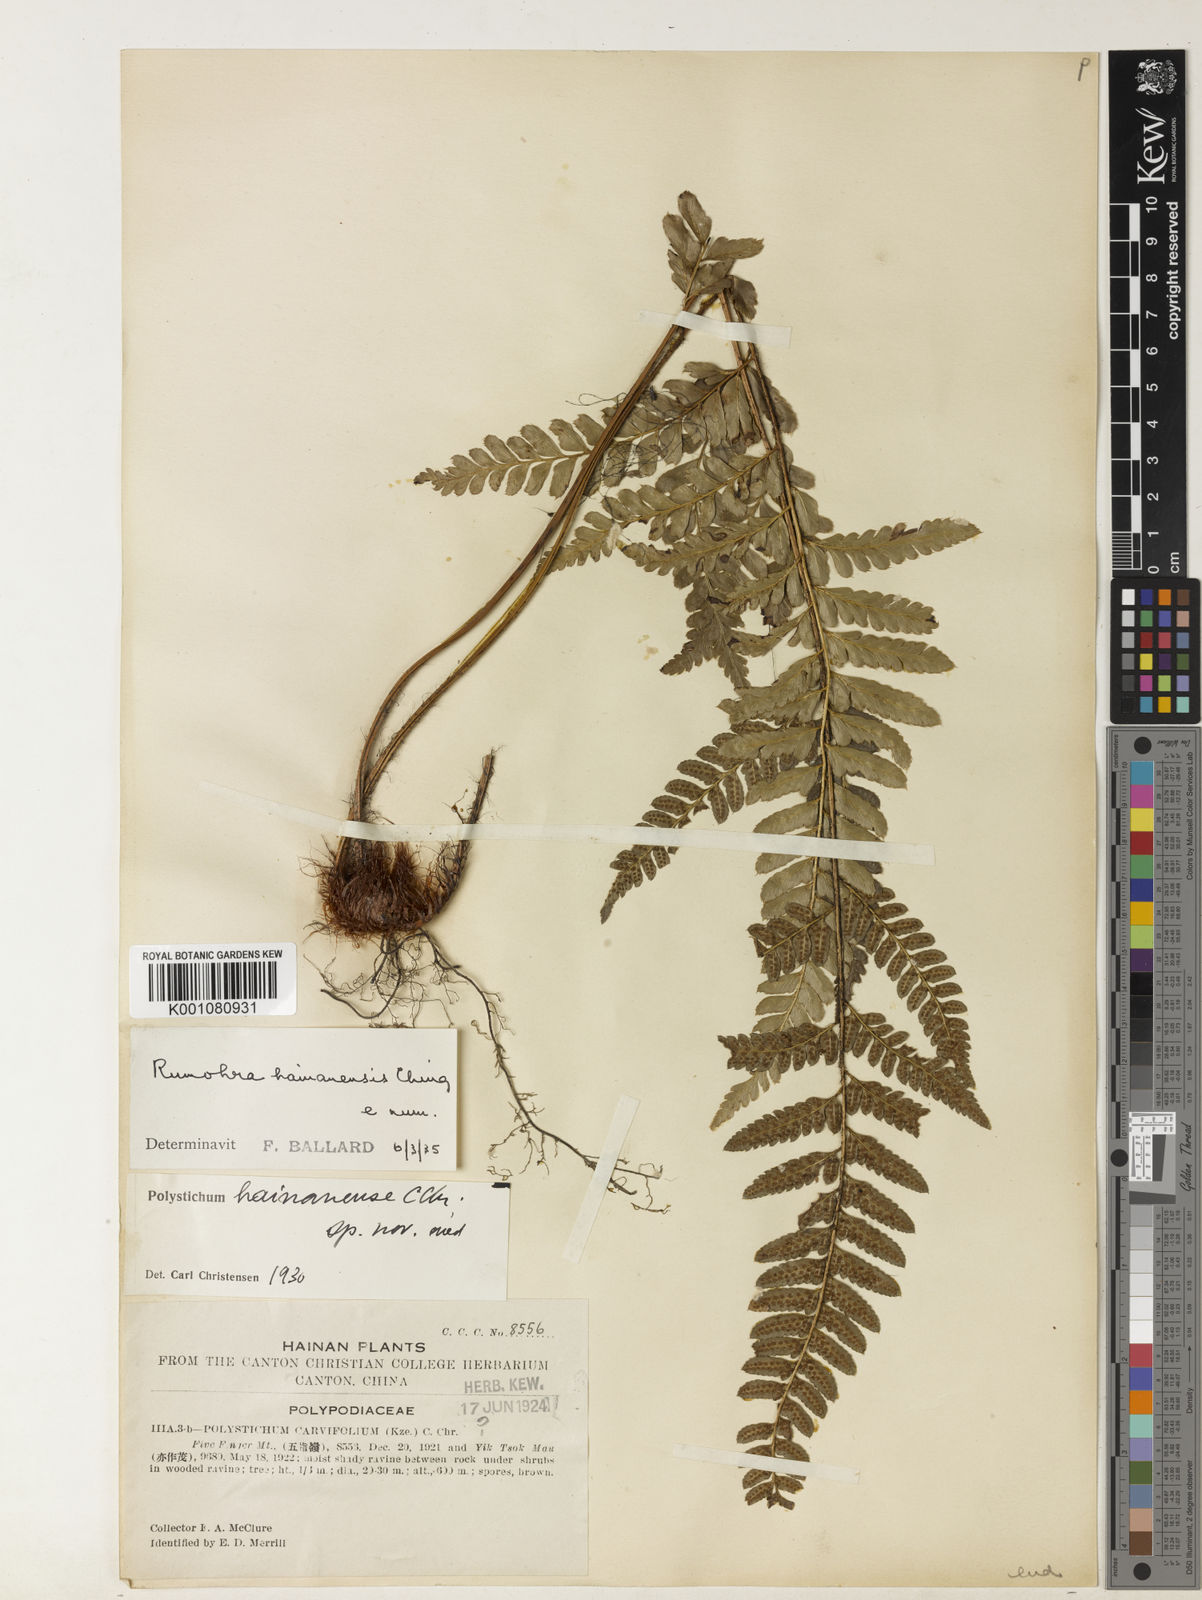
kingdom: Plantae
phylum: Tracheophyta
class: Polypodiopsida
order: Polypodiales
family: Dryopteridaceae
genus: Arachniodes
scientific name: Arachniodes hainanensis
